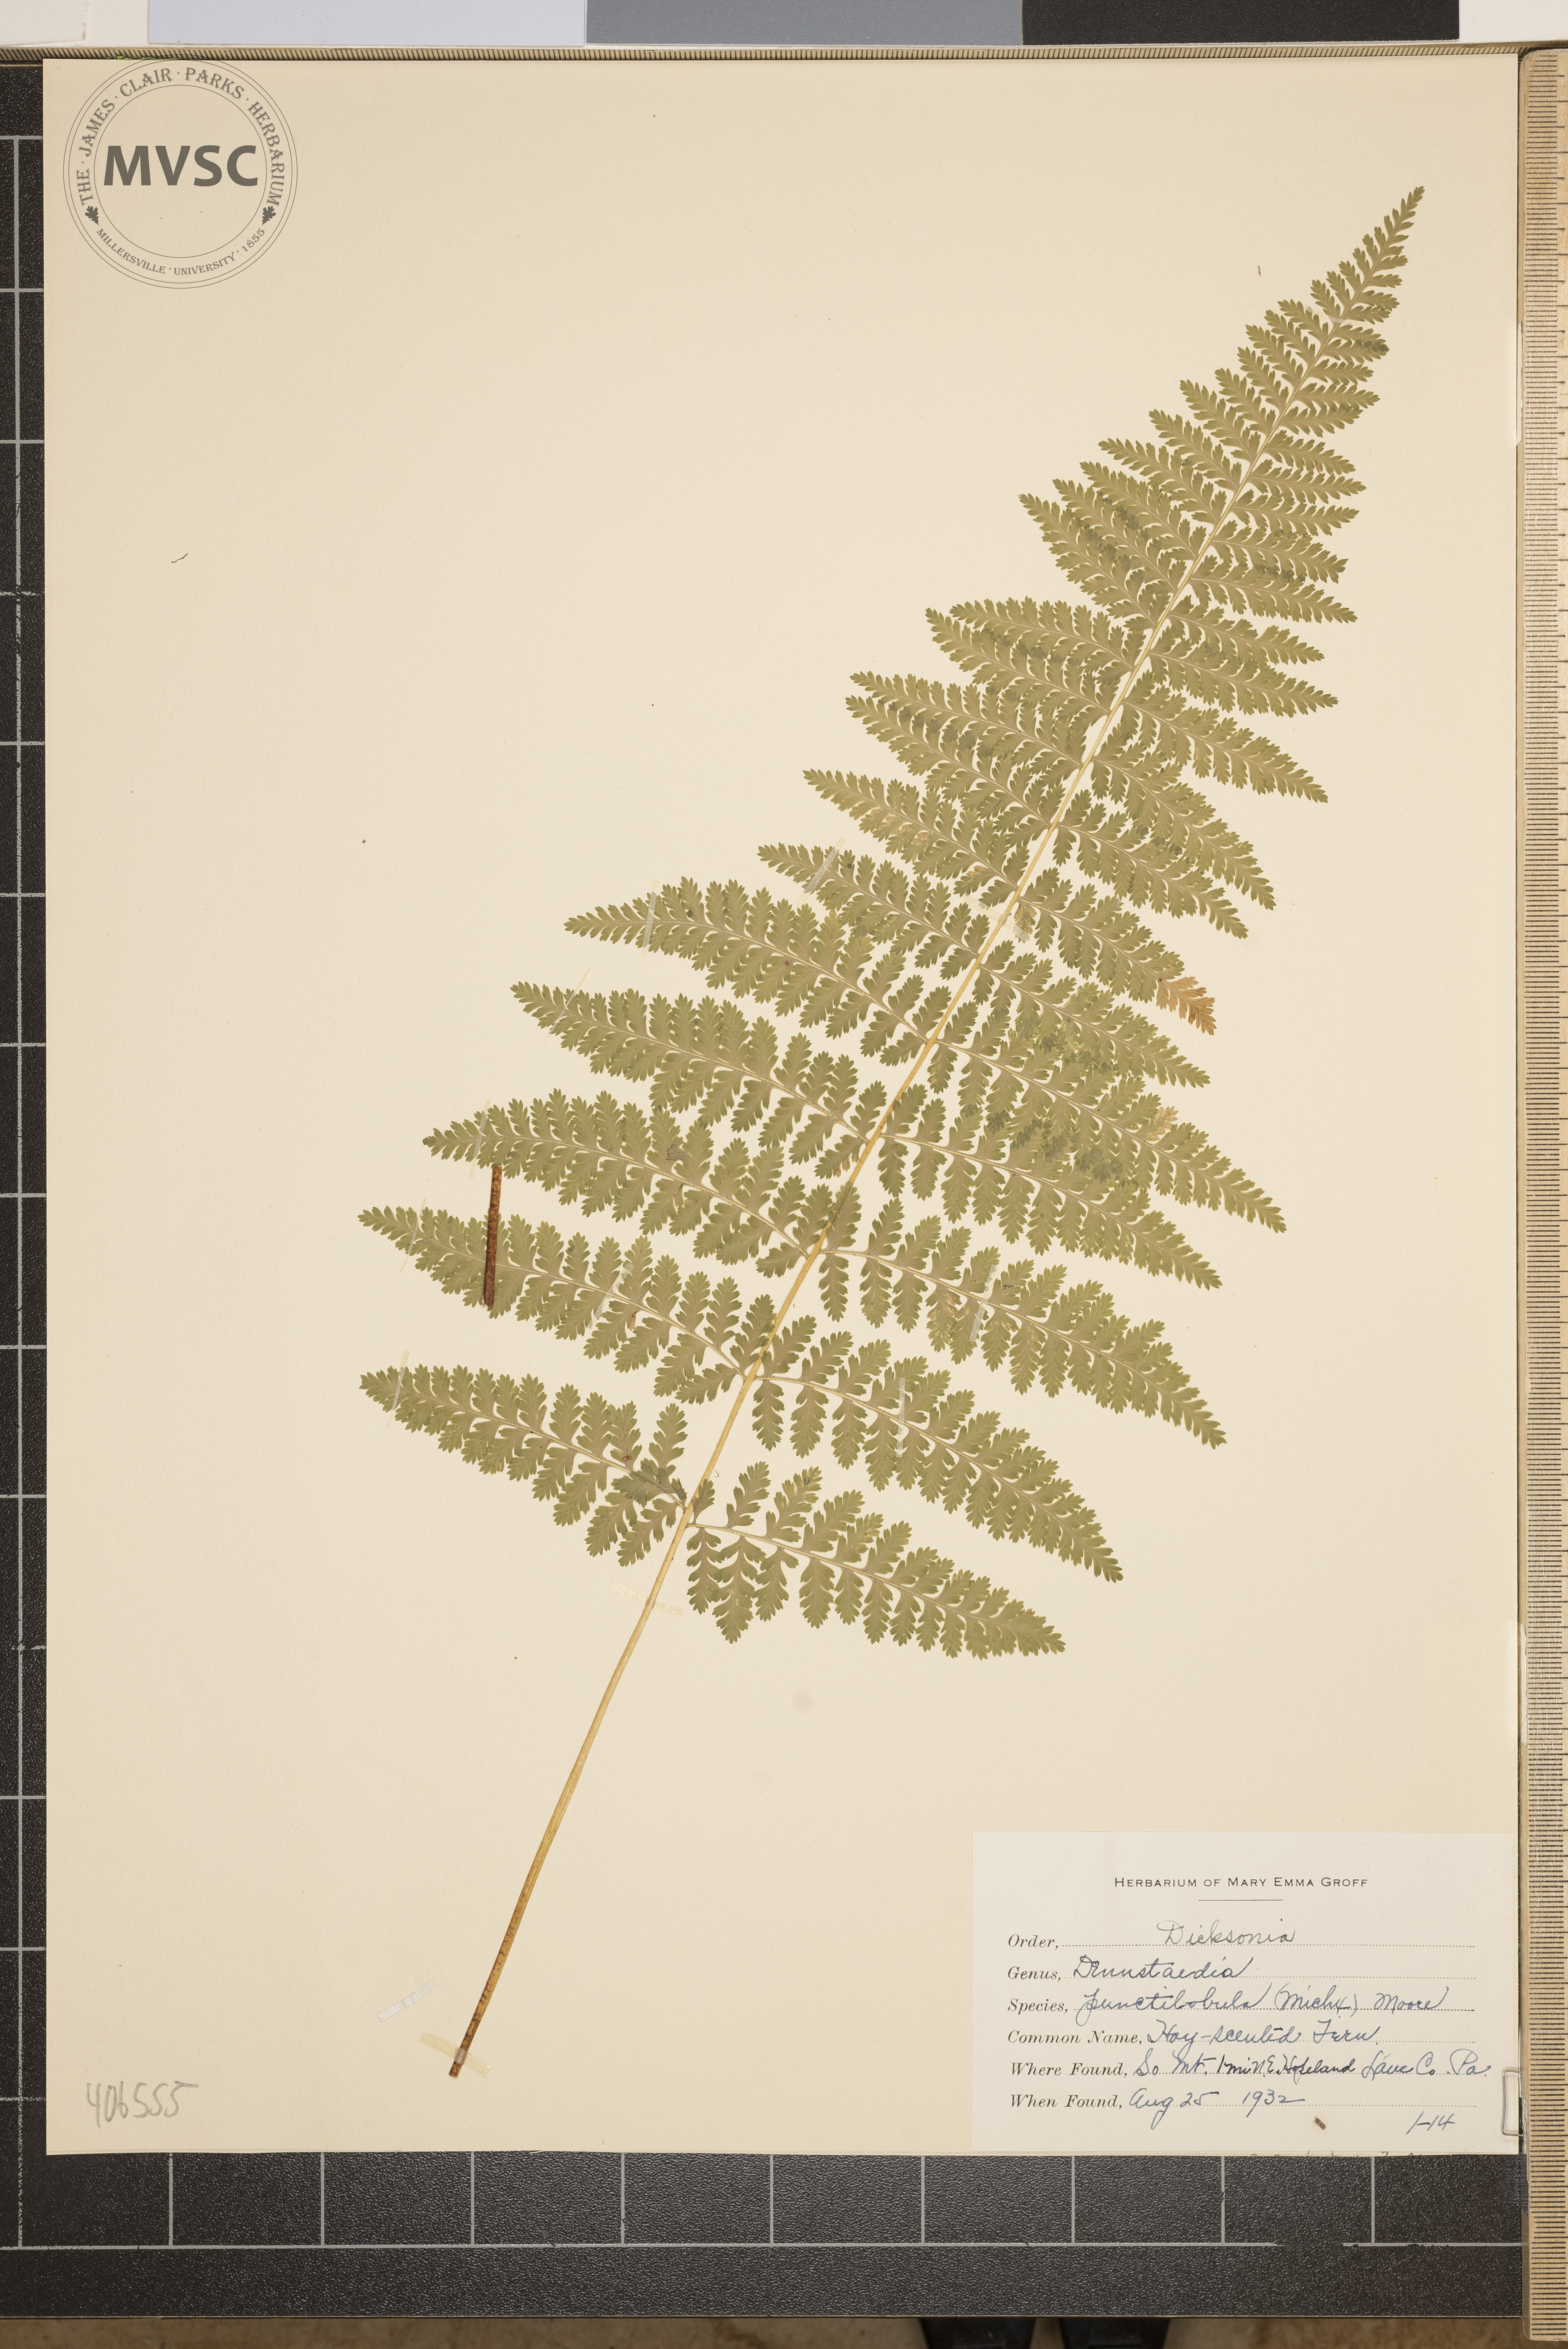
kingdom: Plantae
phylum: Tracheophyta
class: Polypodiopsida
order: Polypodiales
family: Dennstaedtiaceae
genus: Sitobolium
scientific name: Sitobolium punctilobum
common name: Hay-scented Fern
